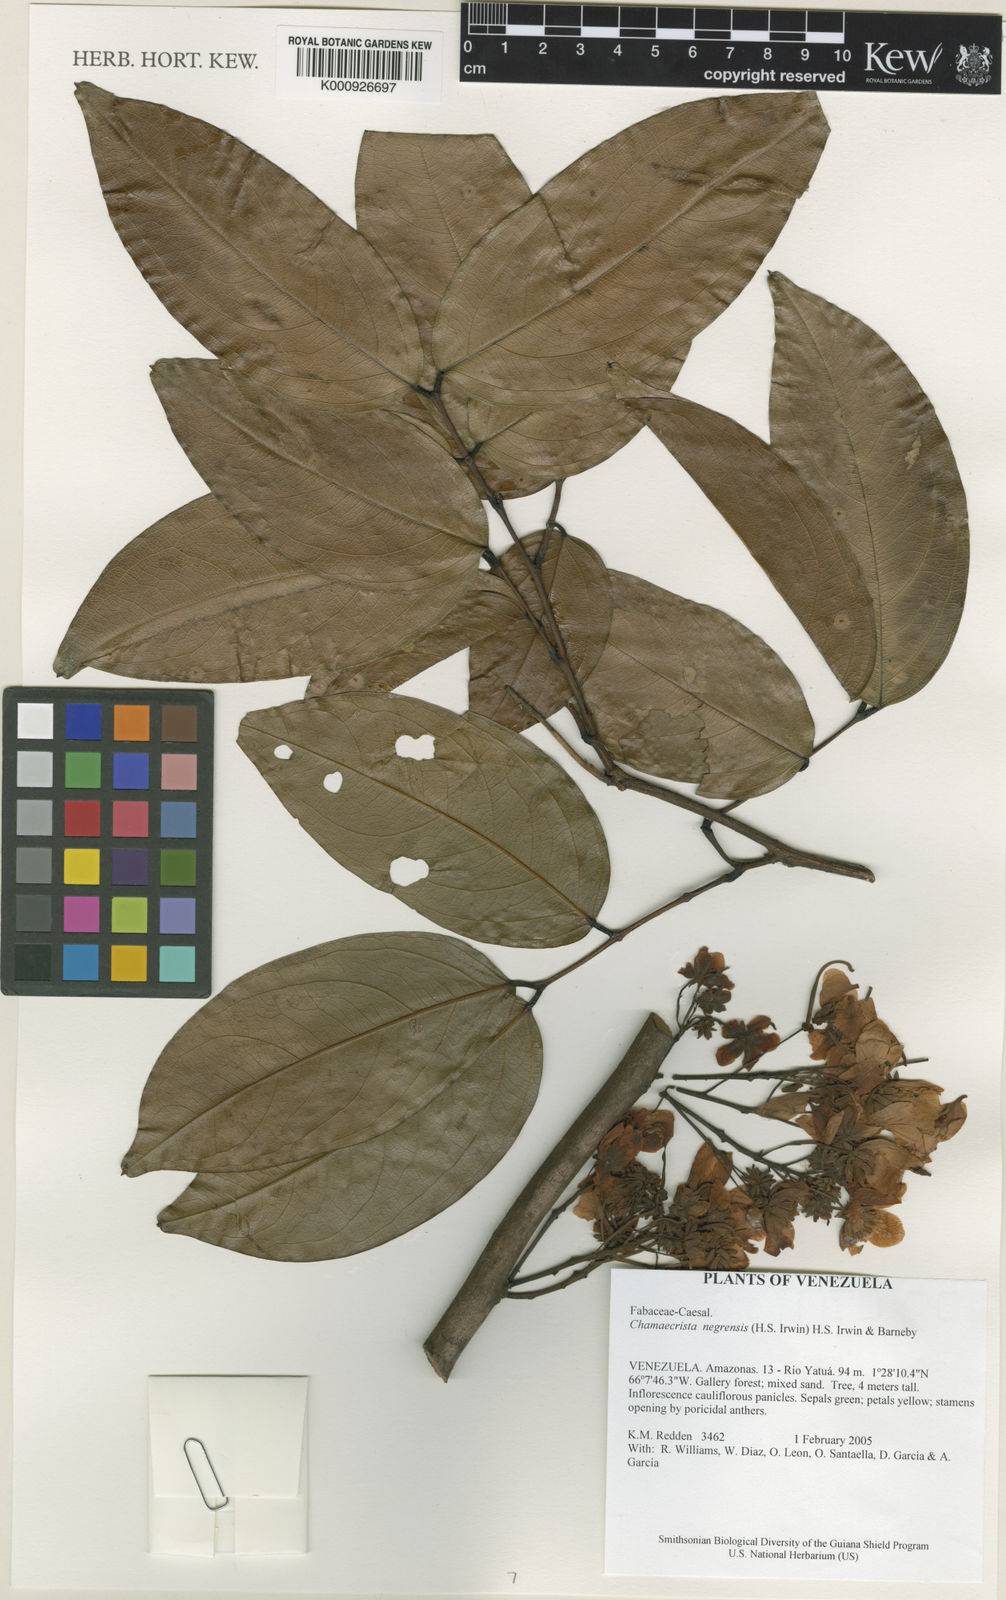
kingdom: Plantae
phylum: Tracheophyta
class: Magnoliopsida
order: Fabales
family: Fabaceae
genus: Chamaecrista
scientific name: Chamaecrista negrensis
